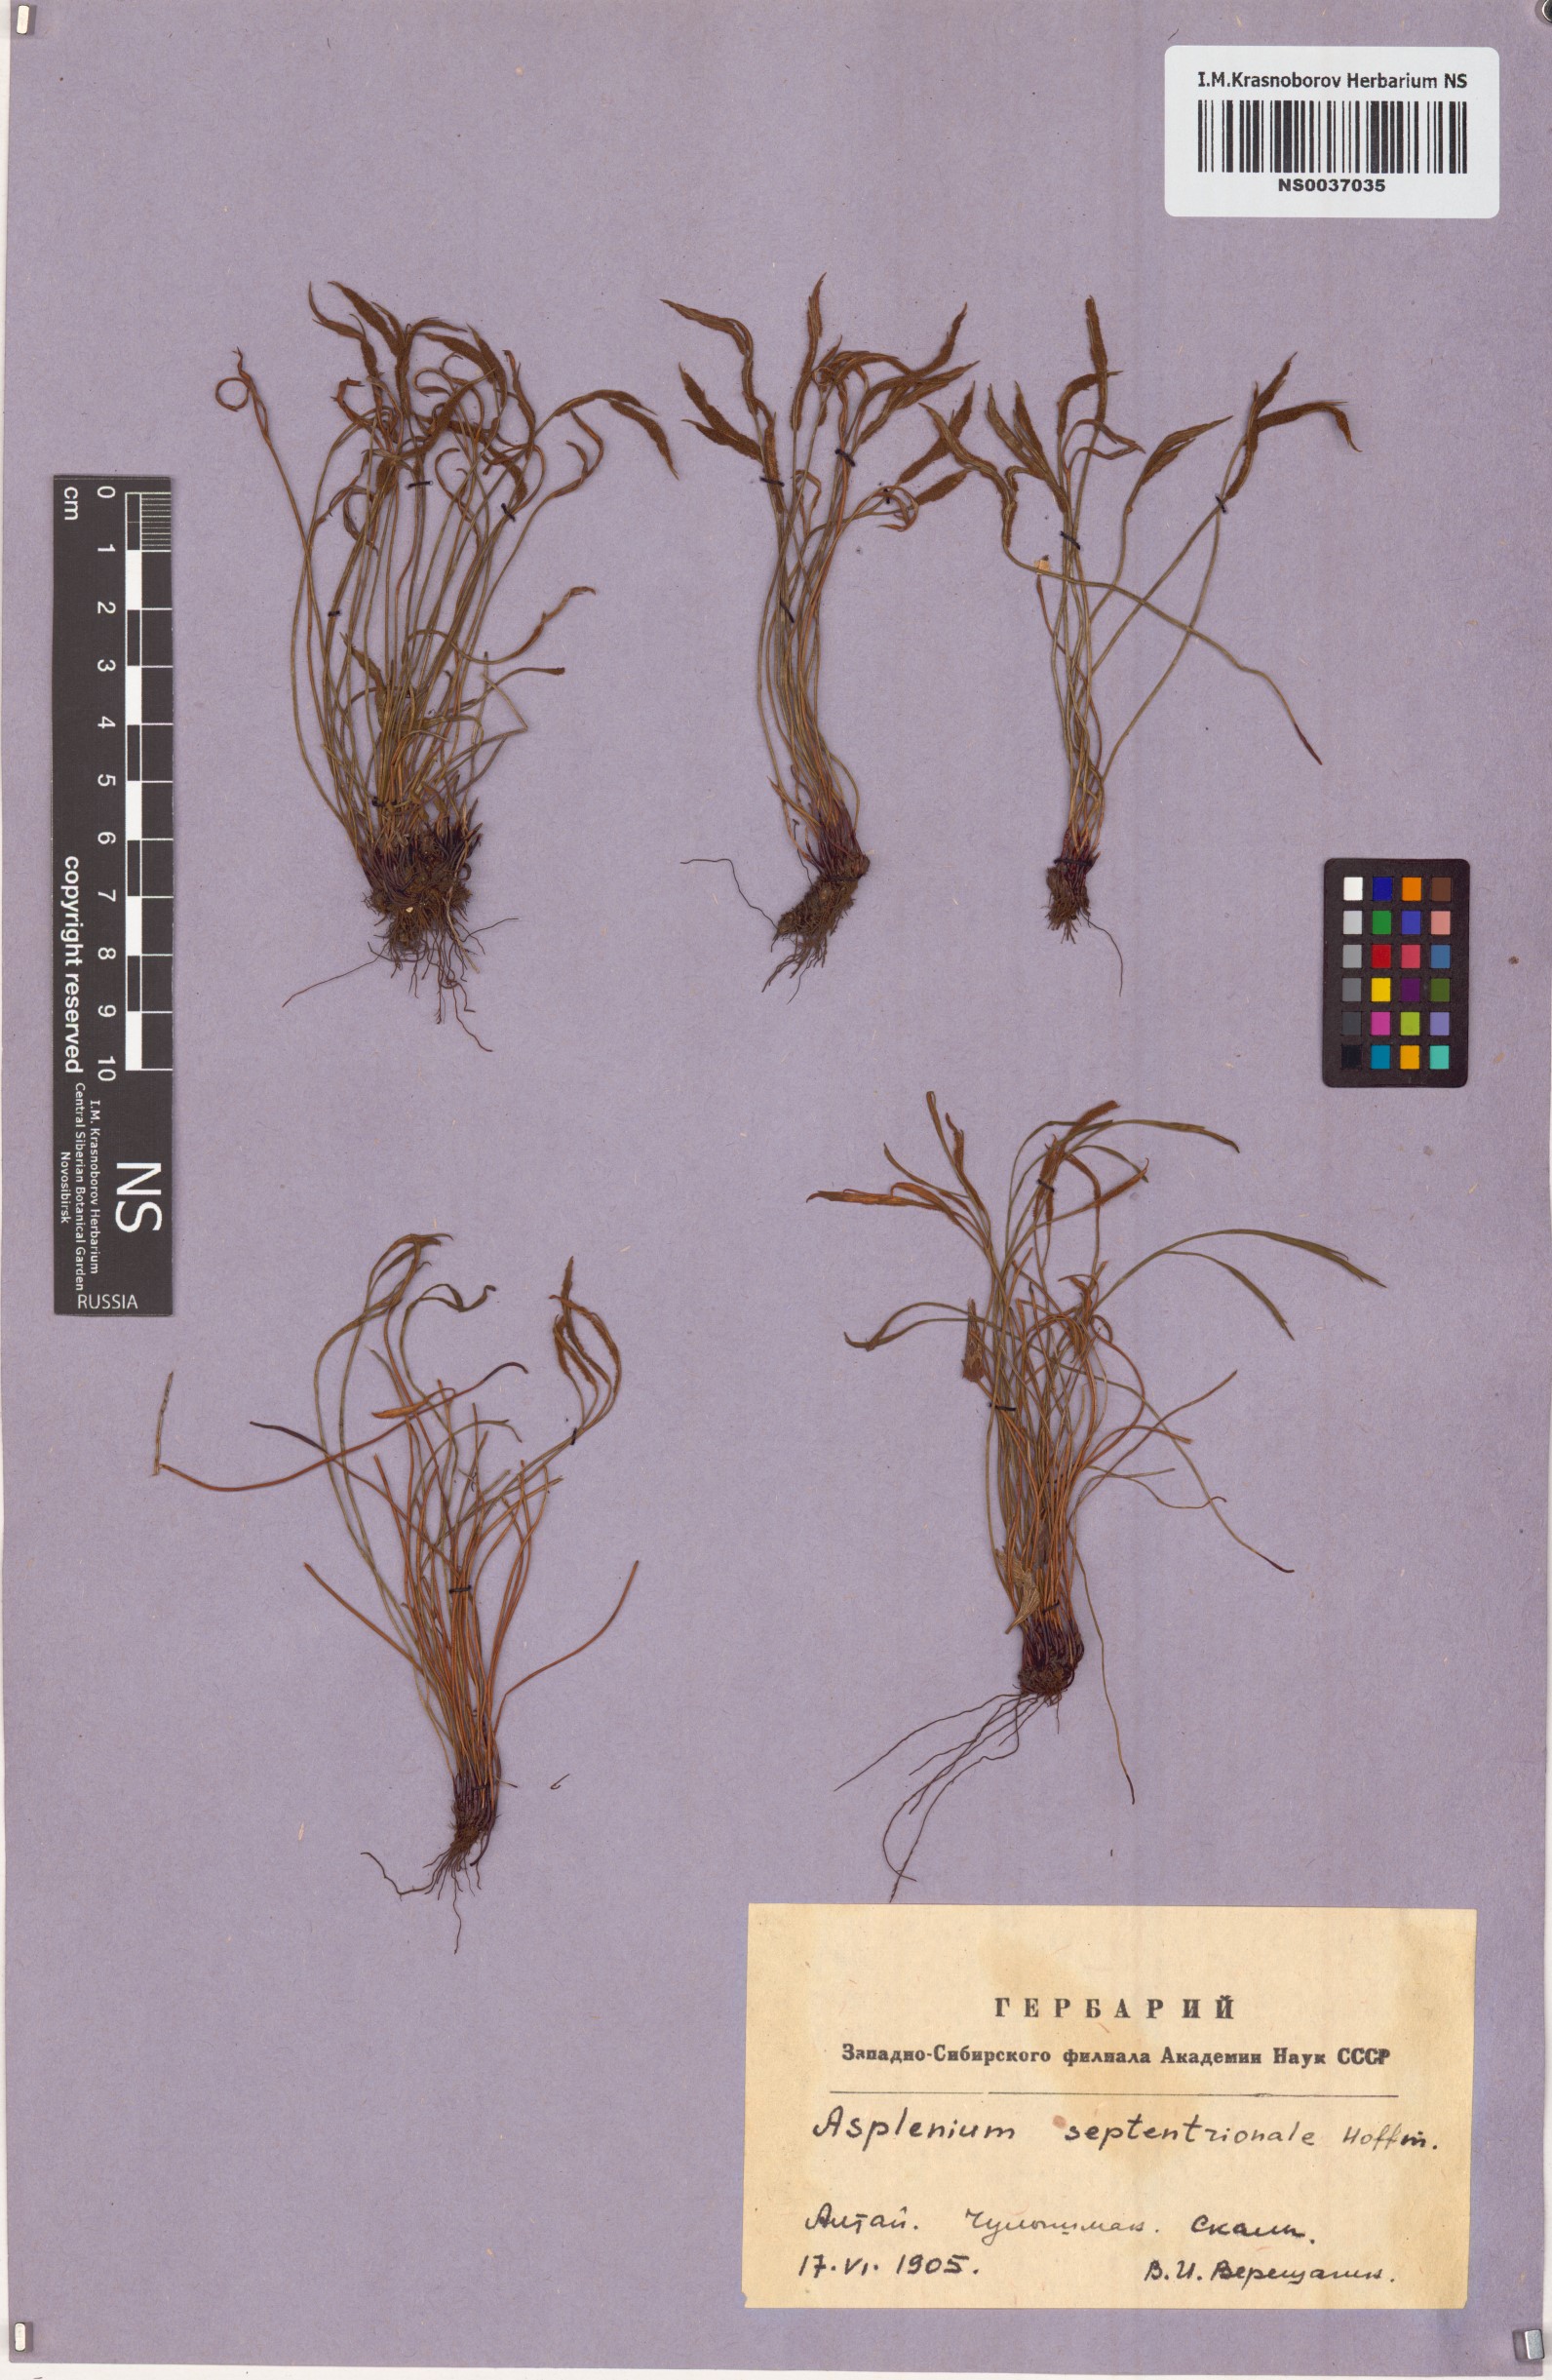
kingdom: Plantae
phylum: Tracheophyta
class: Polypodiopsida
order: Polypodiales
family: Aspleniaceae
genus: Asplenium
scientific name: Asplenium septentrionale
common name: Forked spleenwort
